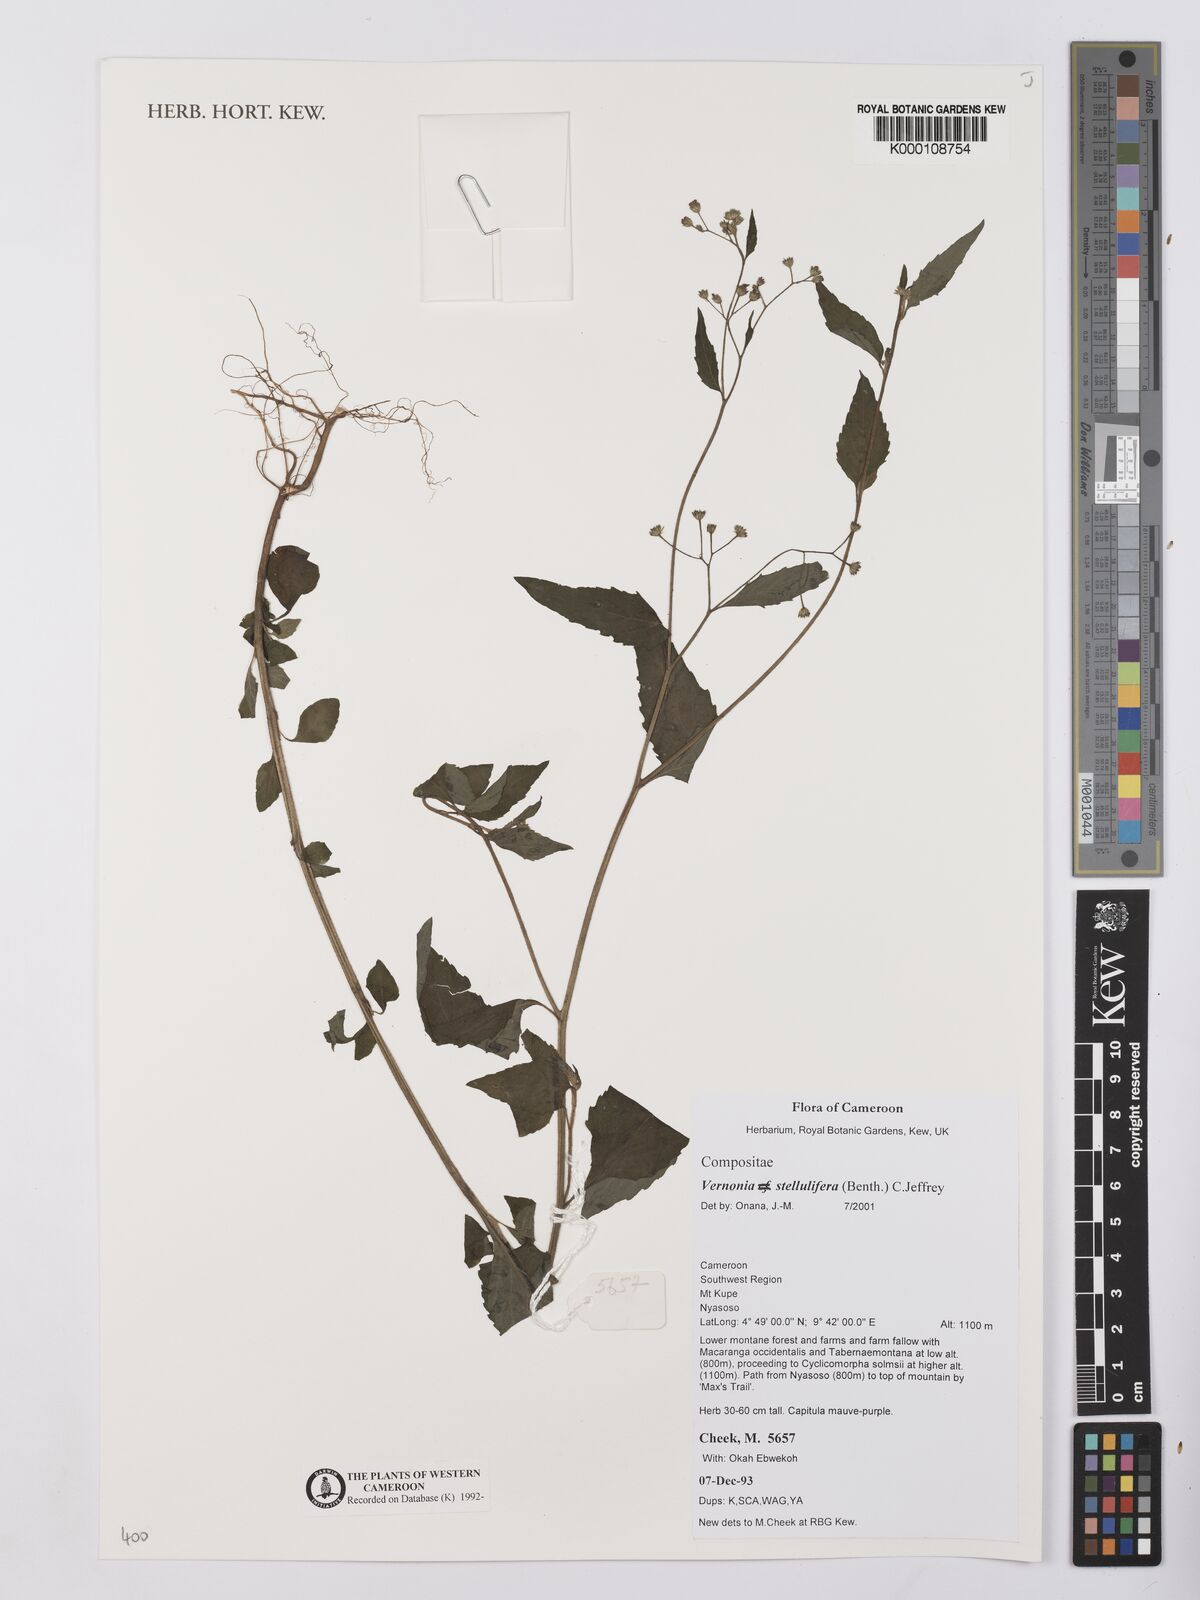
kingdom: Plantae
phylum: Tracheophyta
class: Magnoliopsida
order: Asterales
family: Asteraceae
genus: Cyanthillium
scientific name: Cyanthillium stelluliferum
